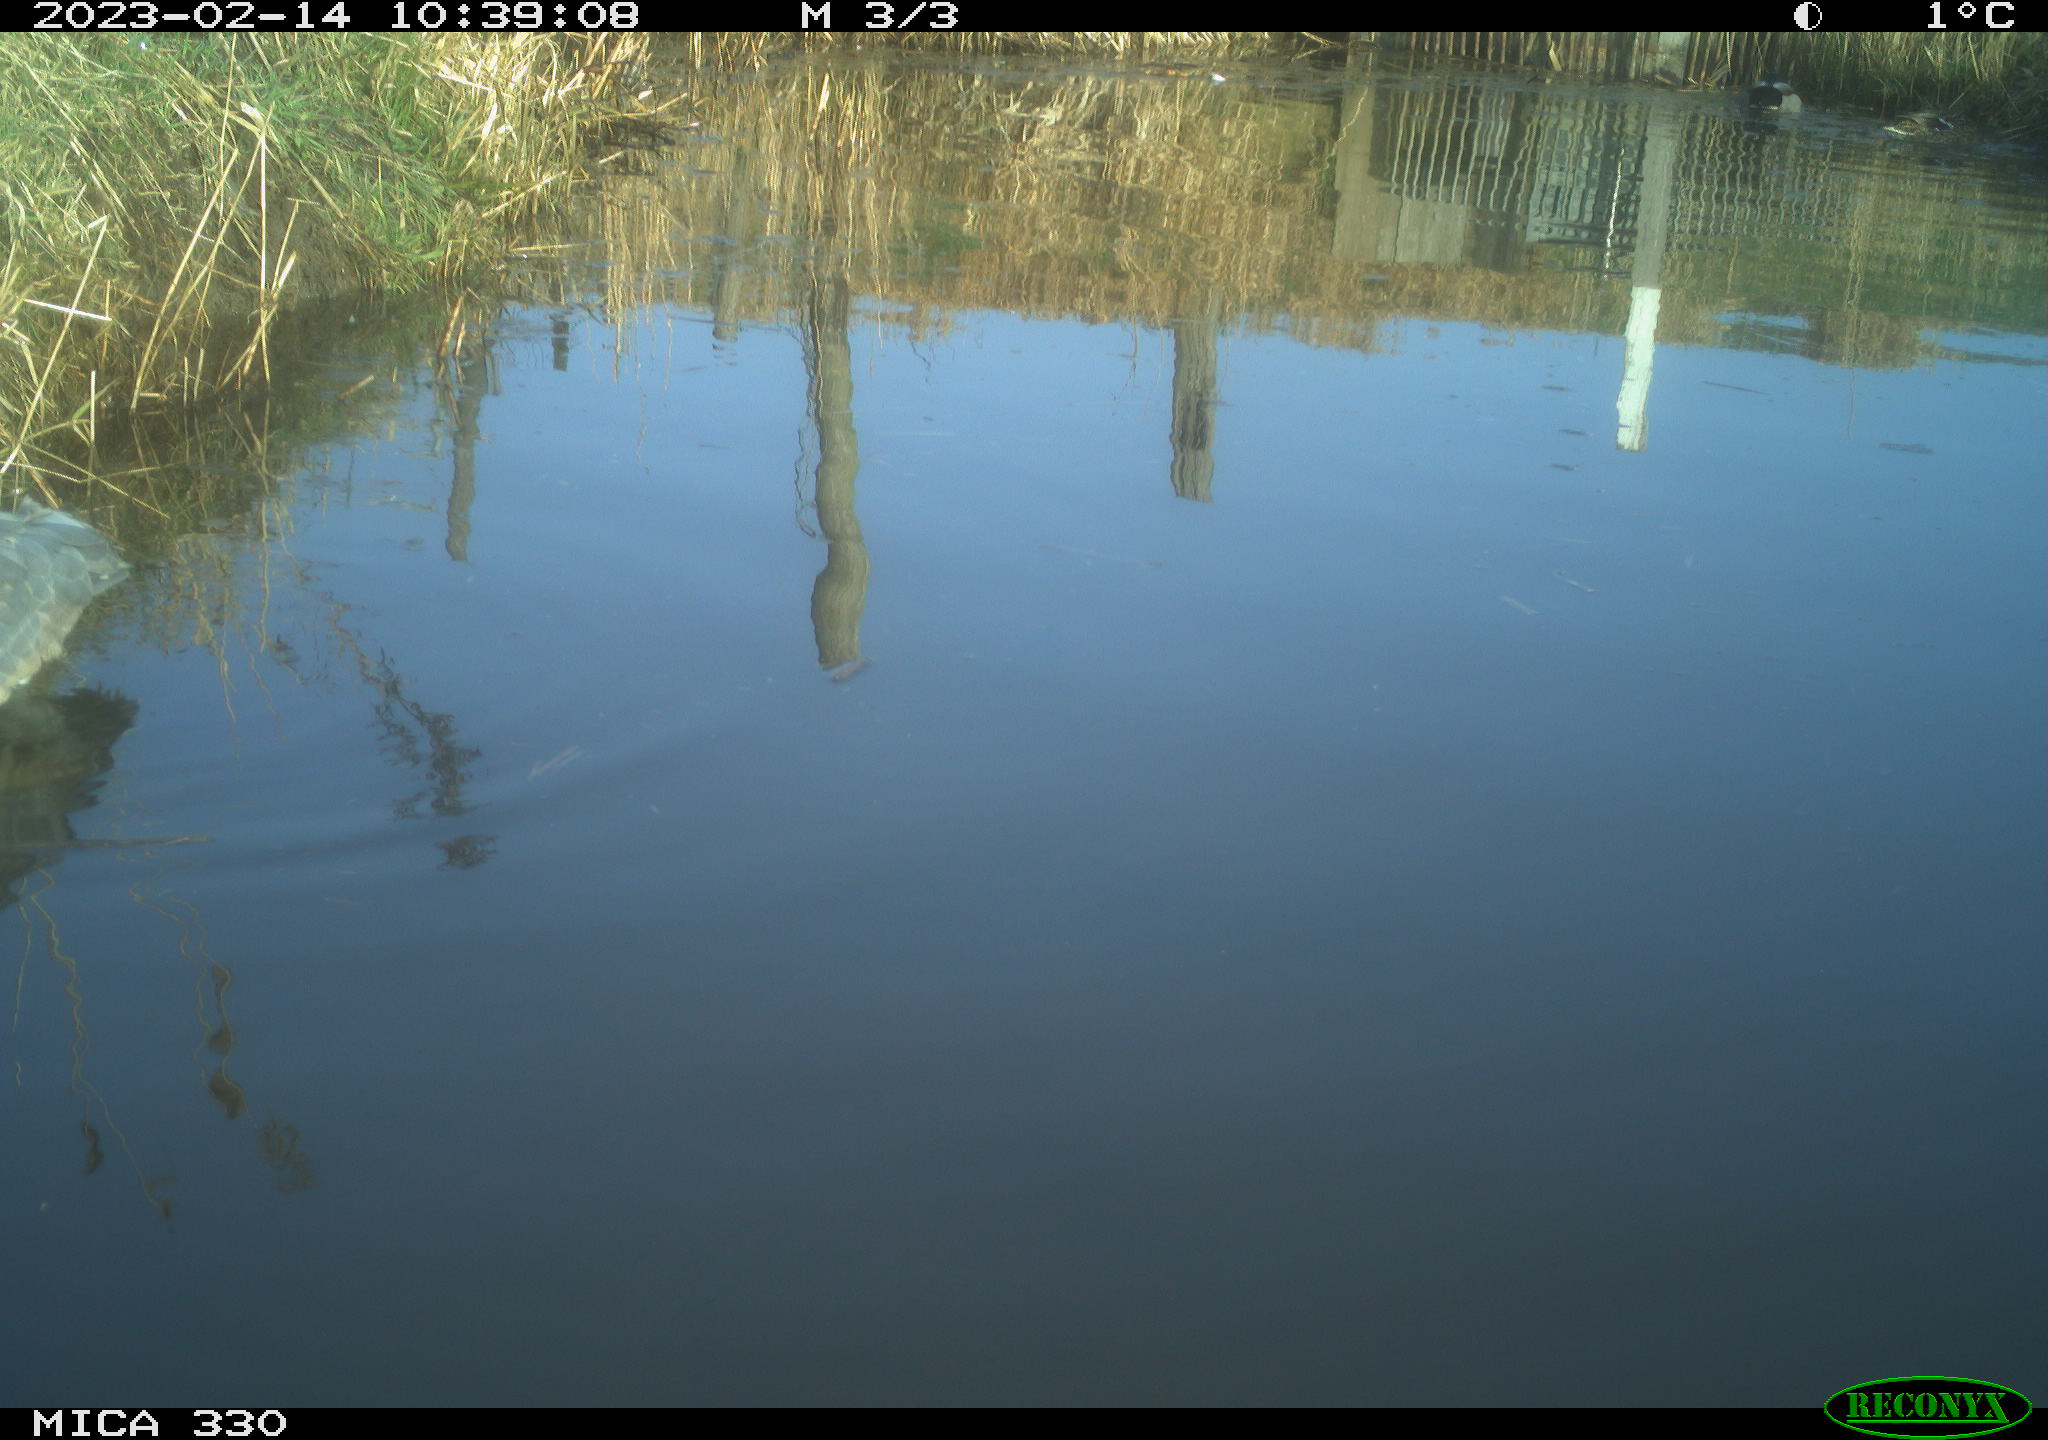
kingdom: Animalia
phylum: Chordata
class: Aves
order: Pelecaniformes
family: Ardeidae
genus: Ardea
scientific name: Ardea cinerea
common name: Grey heron
